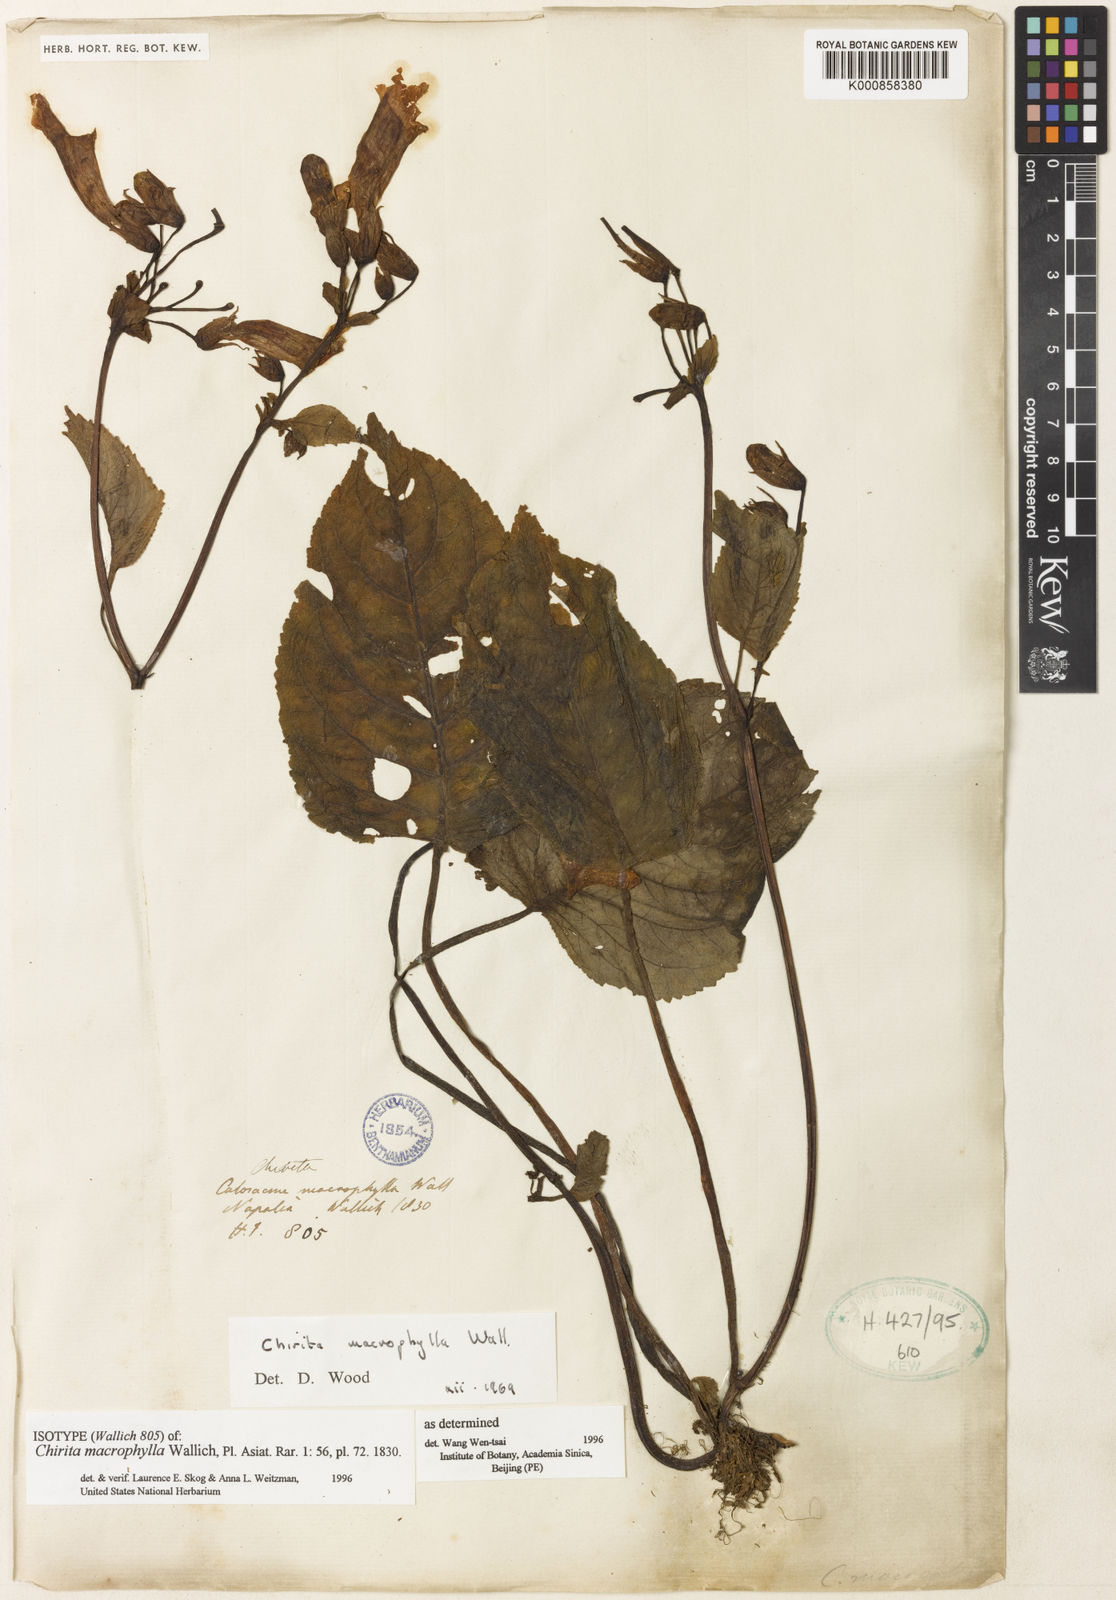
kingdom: Plantae
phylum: Tracheophyta
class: Magnoliopsida
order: Lamiales
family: Gesneriaceae
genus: Henckelia
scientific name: Henckelia grandifolia
